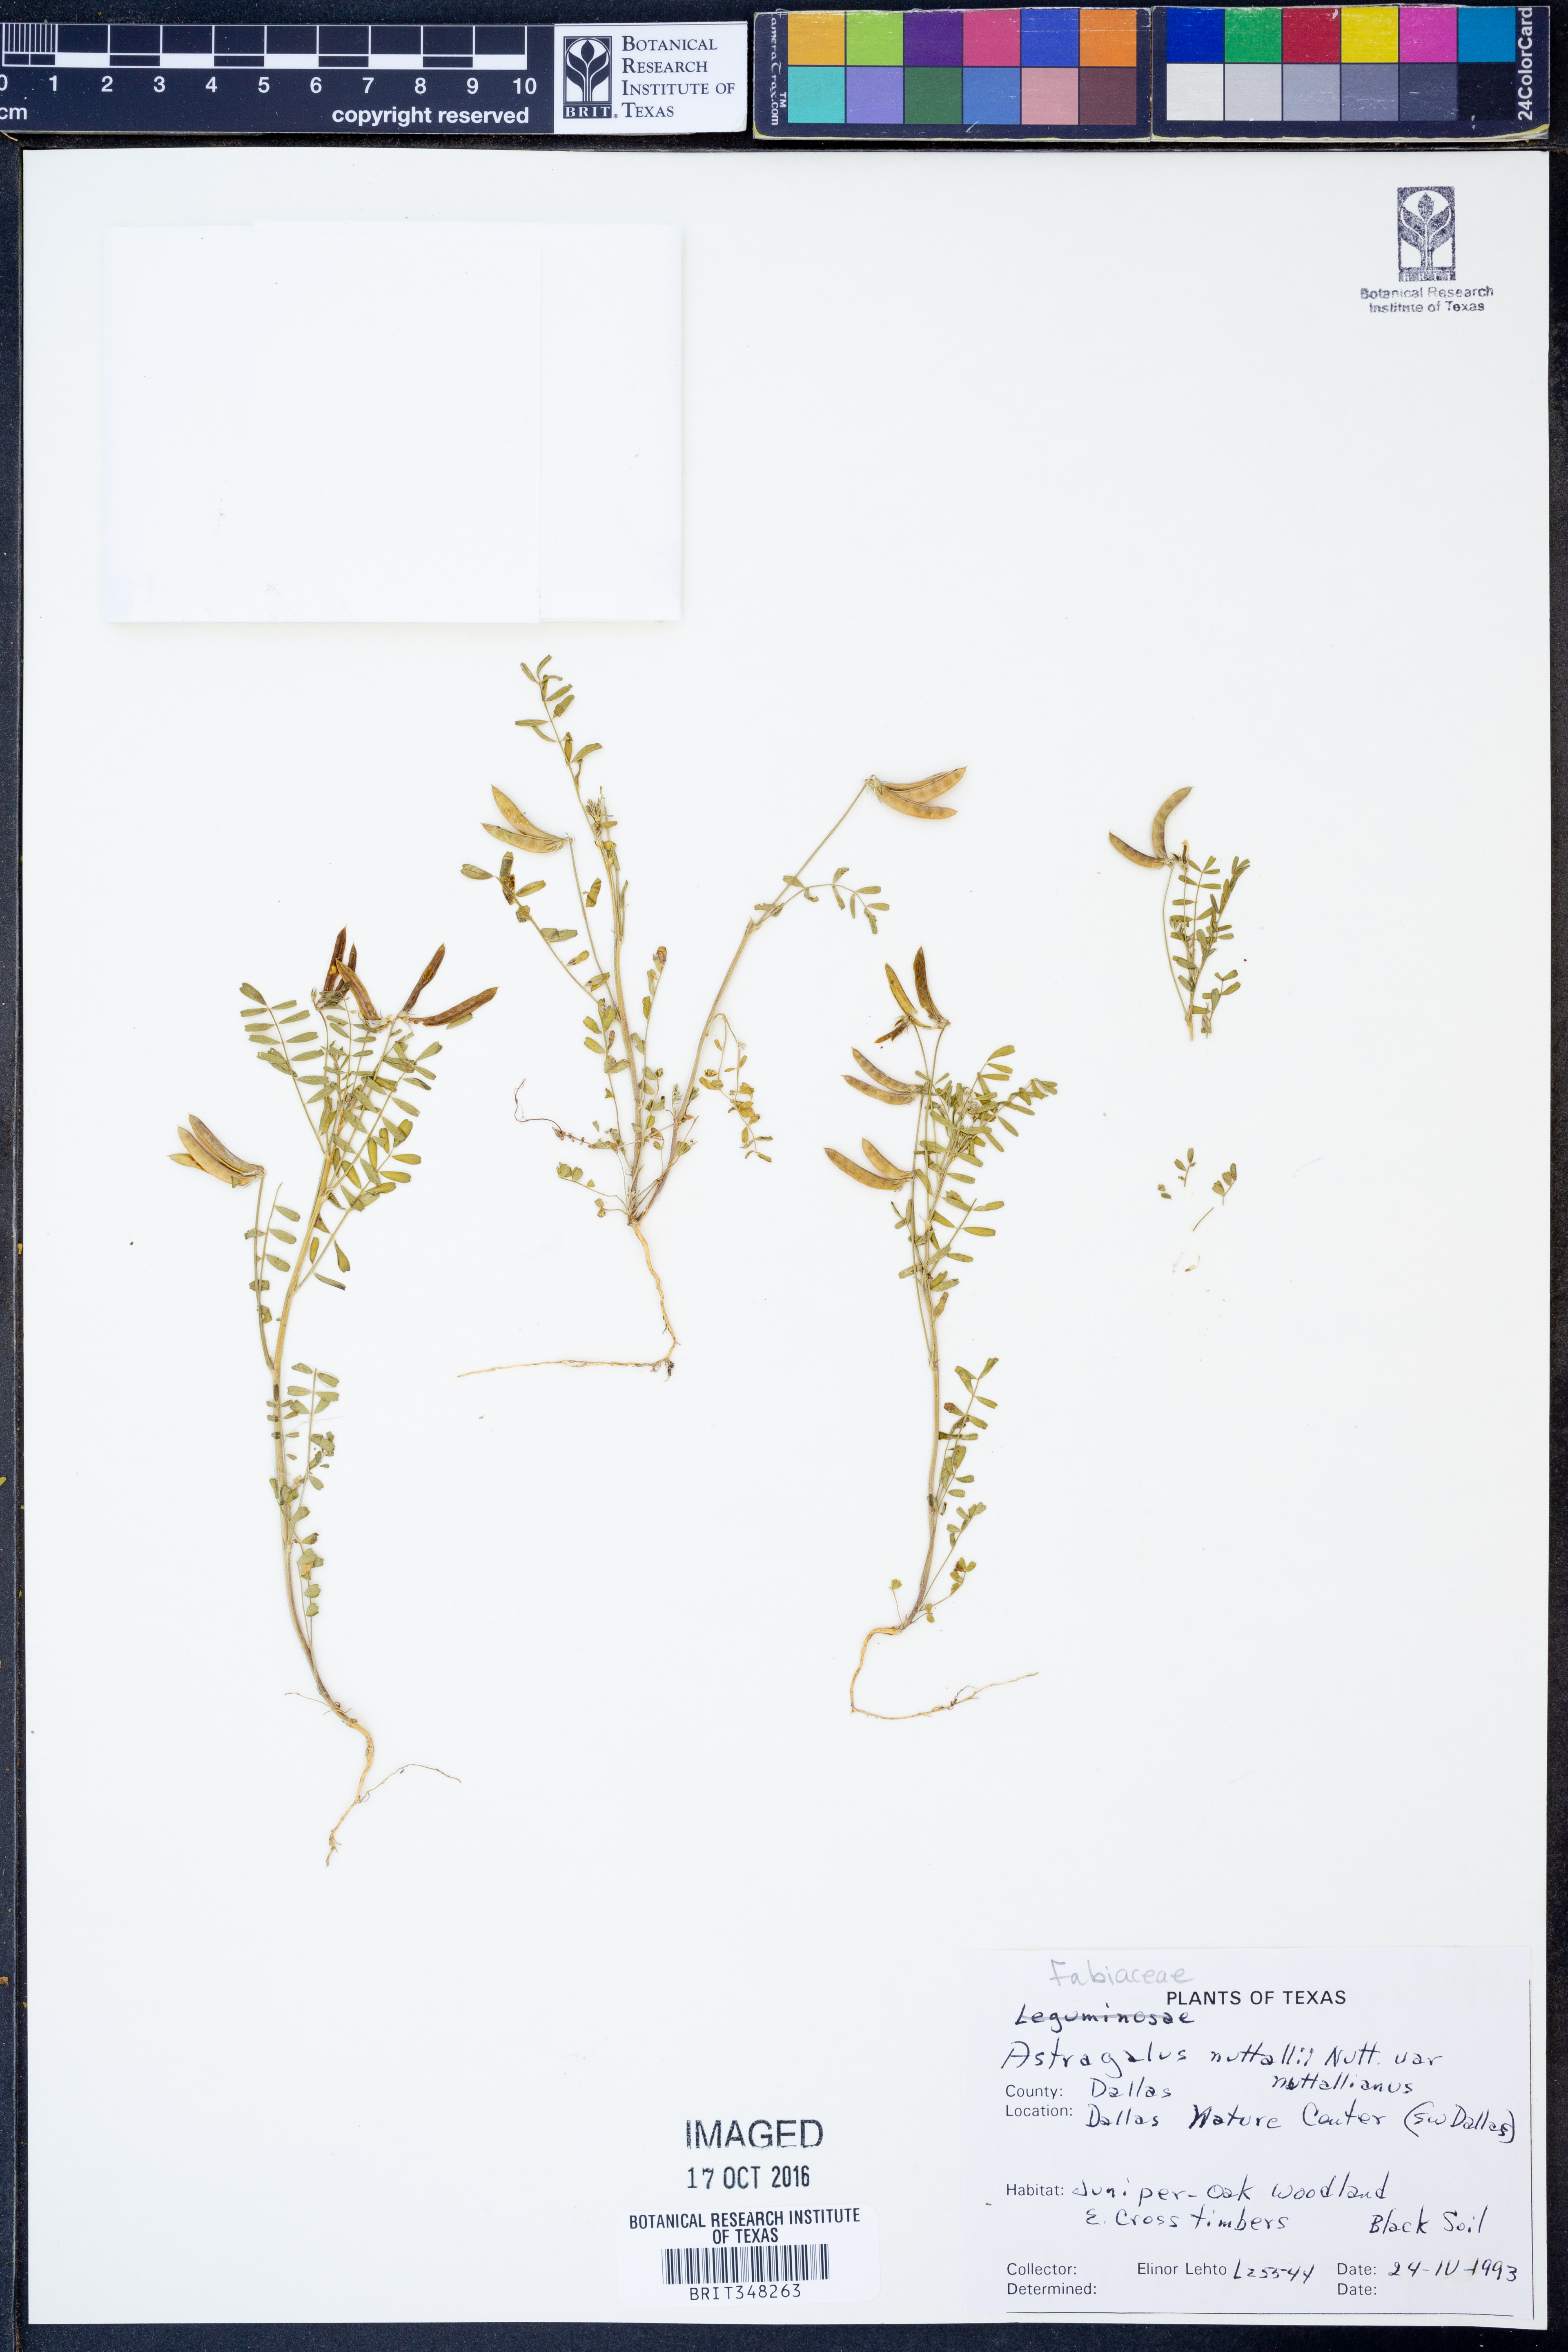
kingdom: Plantae
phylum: Tracheophyta
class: Magnoliopsida
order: Fabales
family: Fabaceae
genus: Astragalus
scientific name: Astragalus nuttallianus
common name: Smallflowered milkvetch
